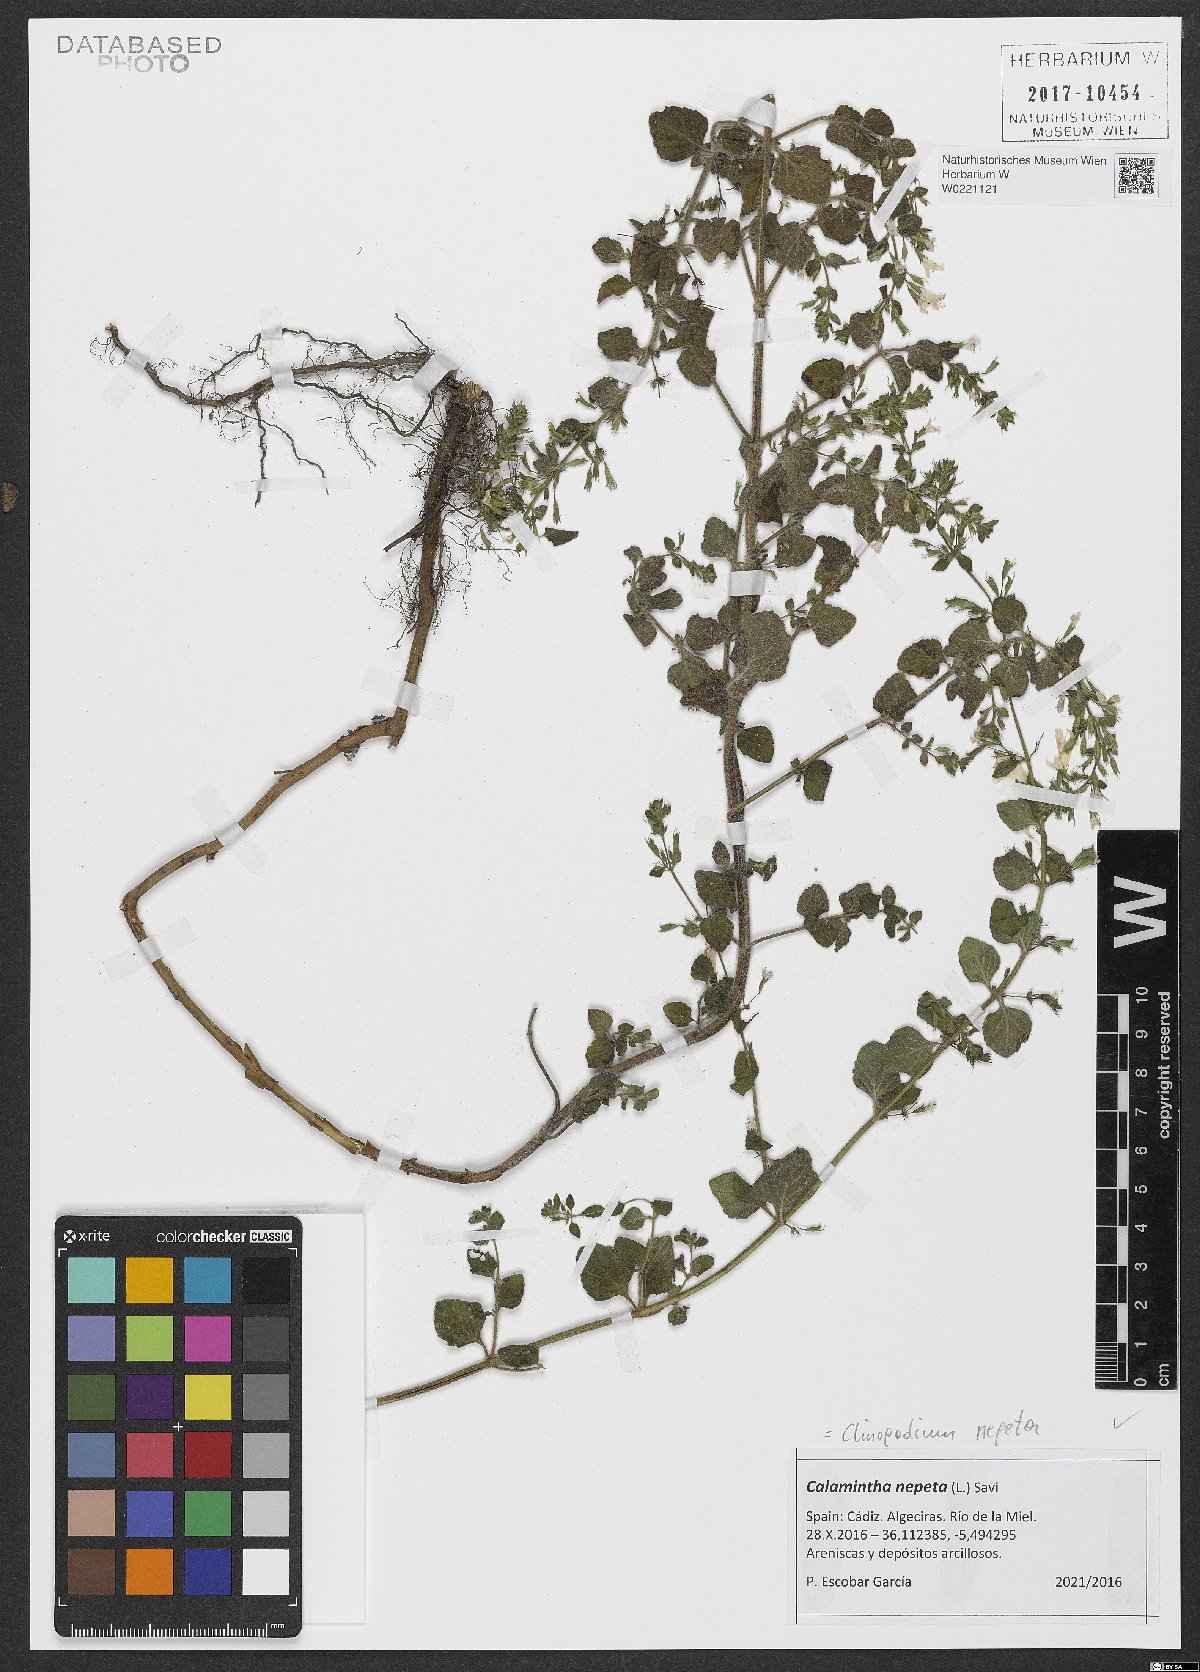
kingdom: Plantae
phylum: Tracheophyta
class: Magnoliopsida
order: Lamiales
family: Lamiaceae
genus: Clinopodium
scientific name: Clinopodium nepeta
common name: Lesser calamint
